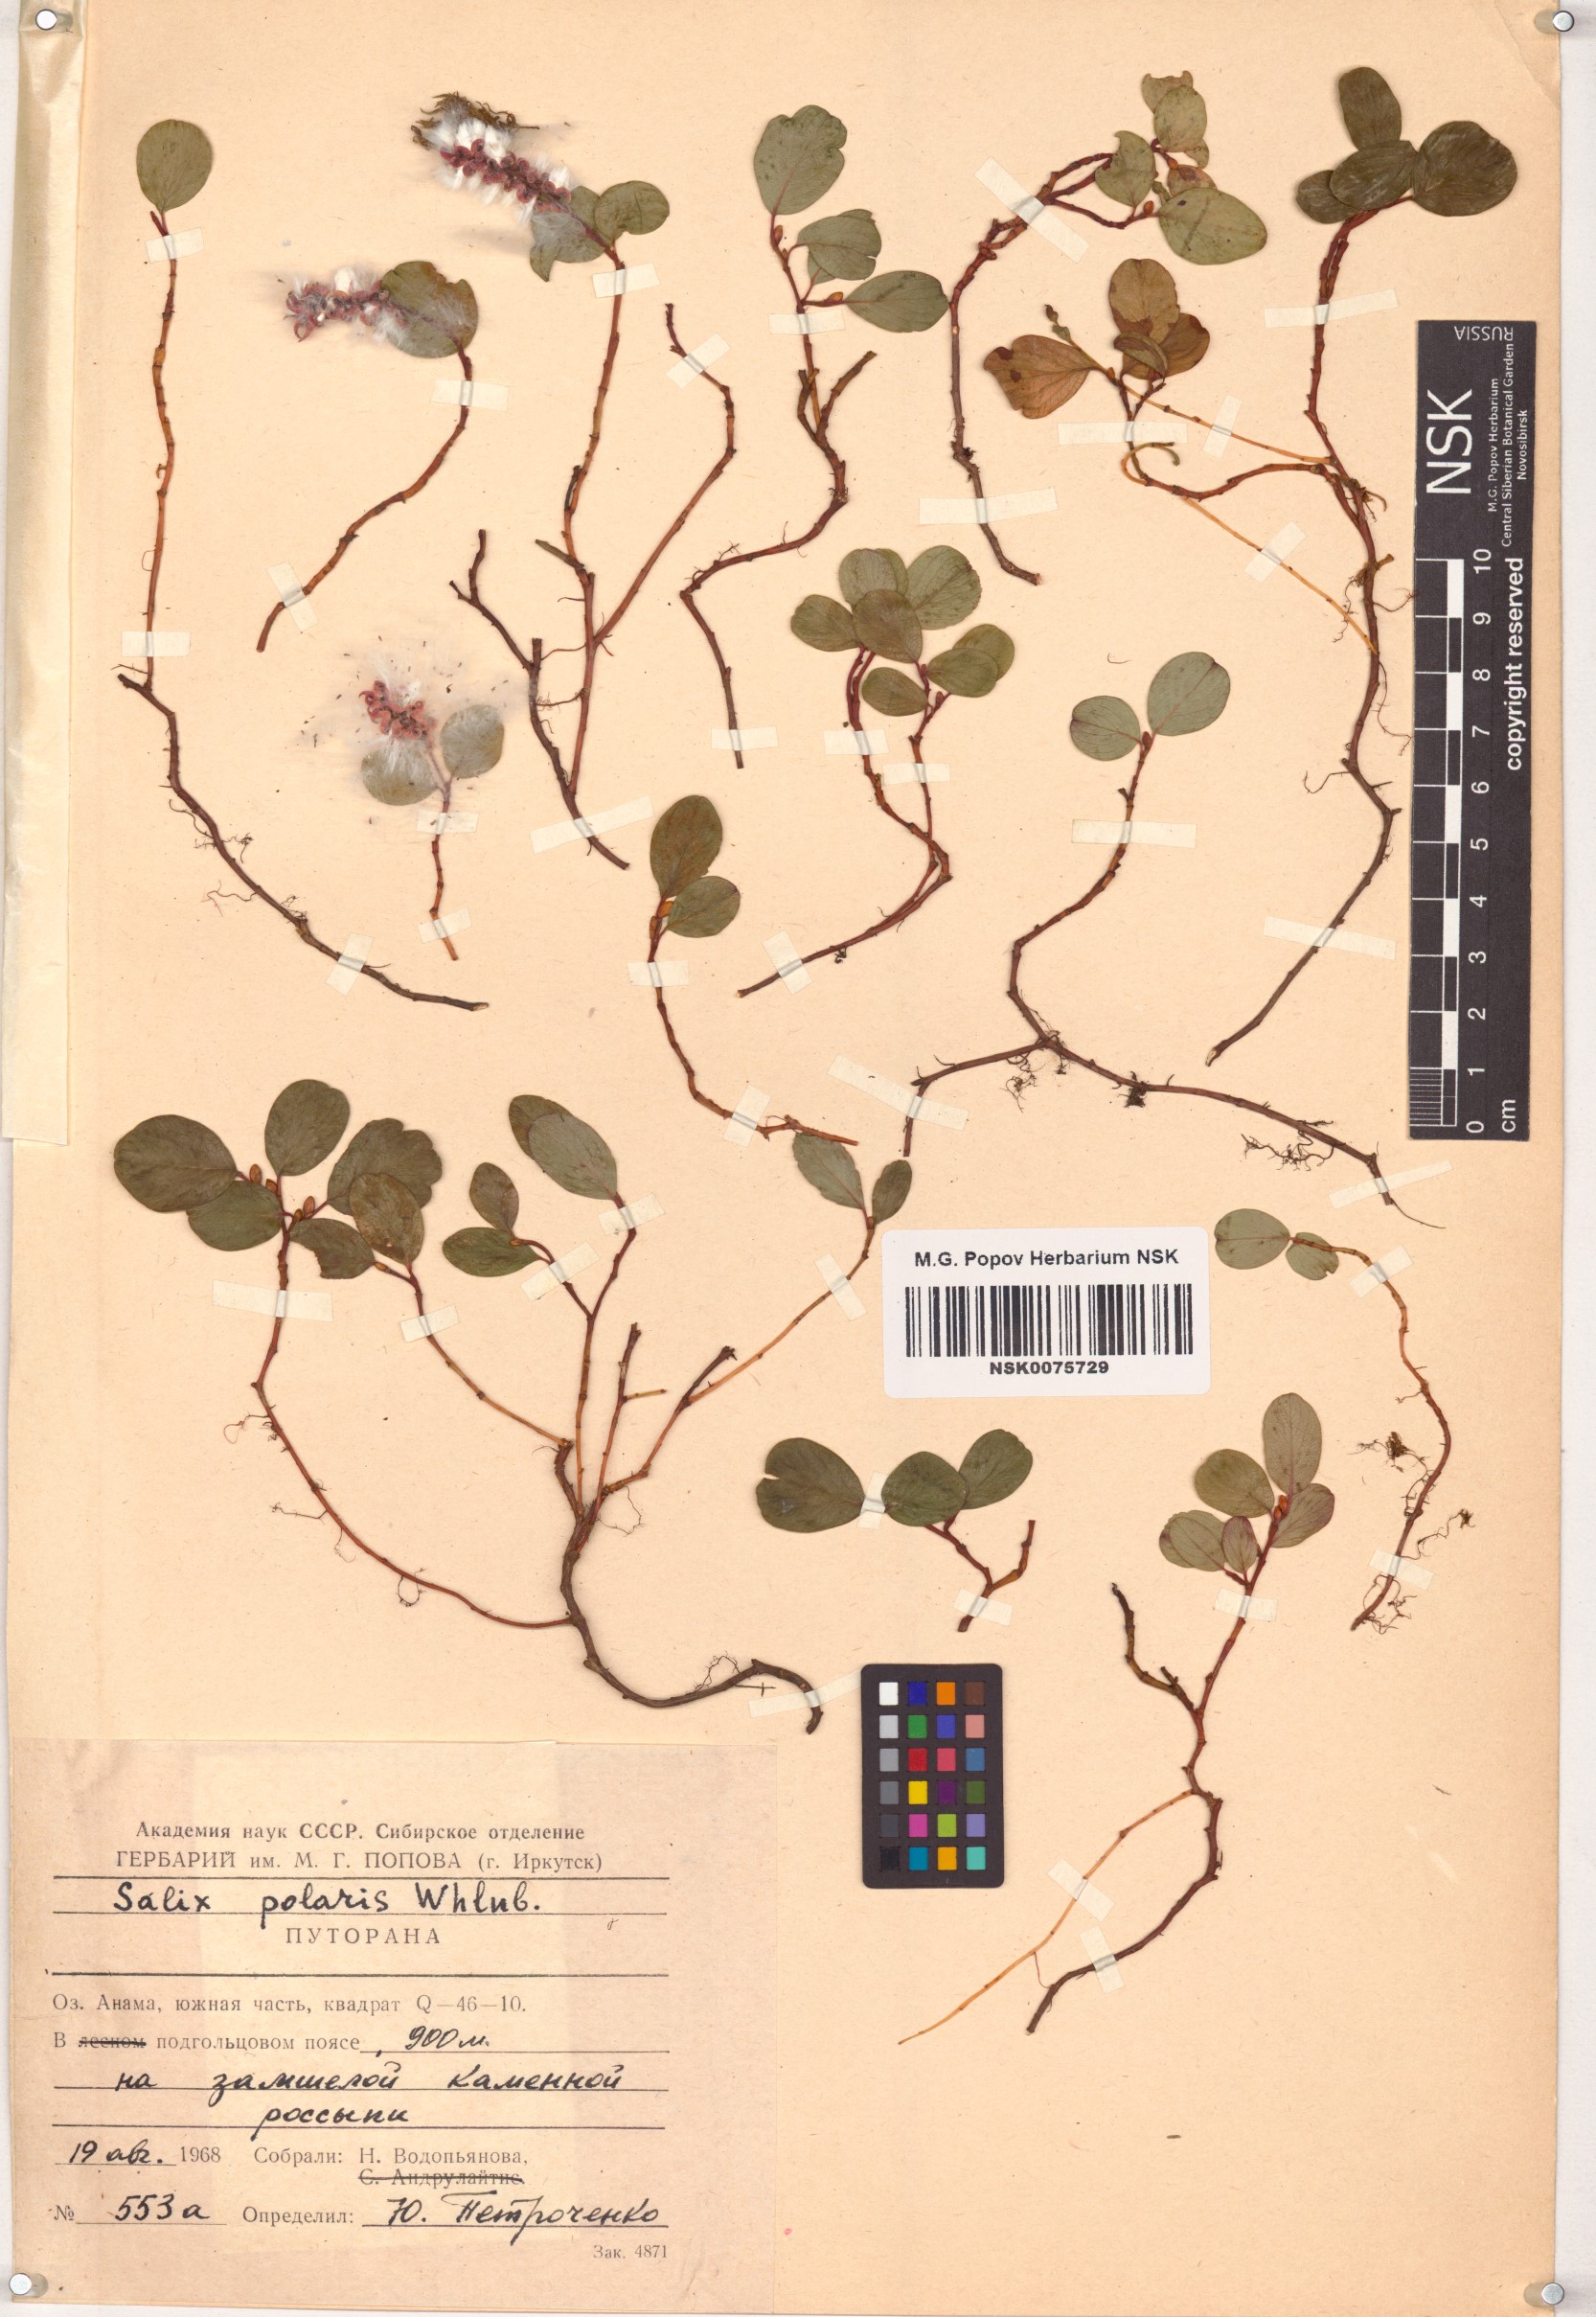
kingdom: Plantae
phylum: Tracheophyta
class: Magnoliopsida
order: Malpighiales
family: Salicaceae
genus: Salix
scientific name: Salix polaris
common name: Polar willow
